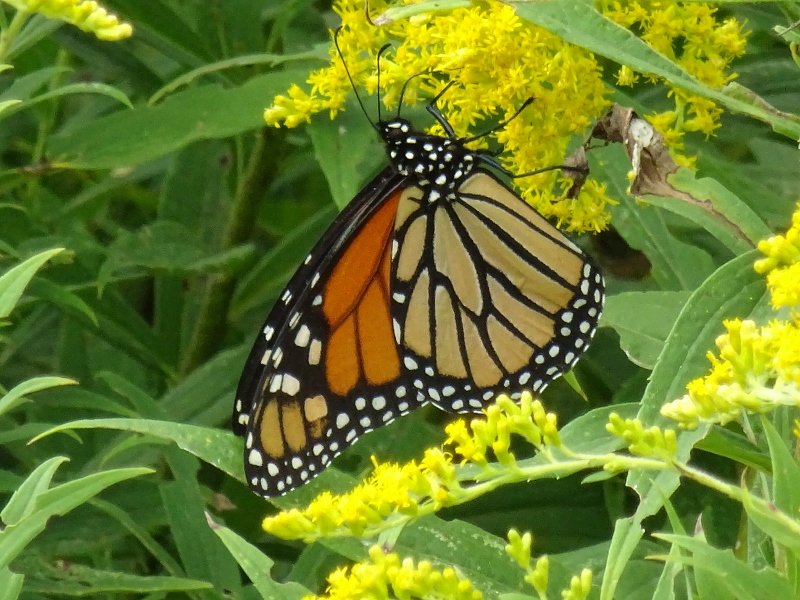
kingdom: Animalia
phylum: Arthropoda
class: Insecta
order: Lepidoptera
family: Nymphalidae
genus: Danaus
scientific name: Danaus plexippus
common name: Monarch
